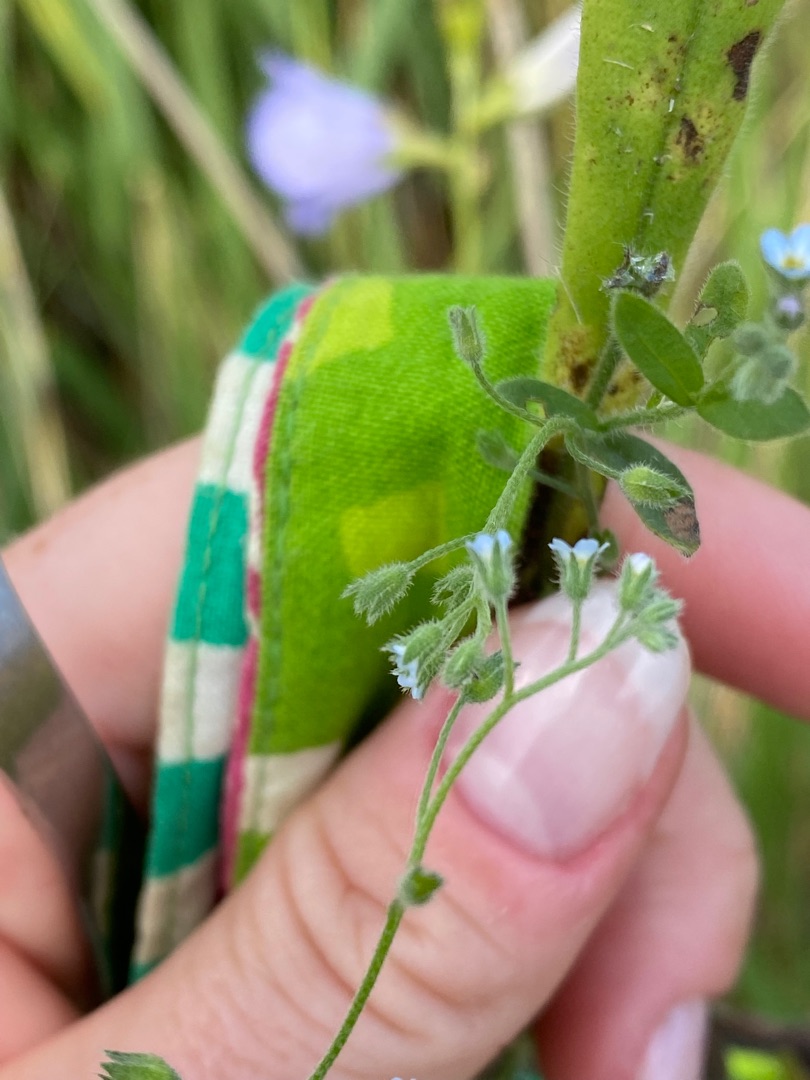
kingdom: Plantae
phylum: Tracheophyta
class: Magnoliopsida
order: Boraginales
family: Boraginaceae
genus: Myosotis
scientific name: Myosotis arvensis
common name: Mark-forglemmigej
